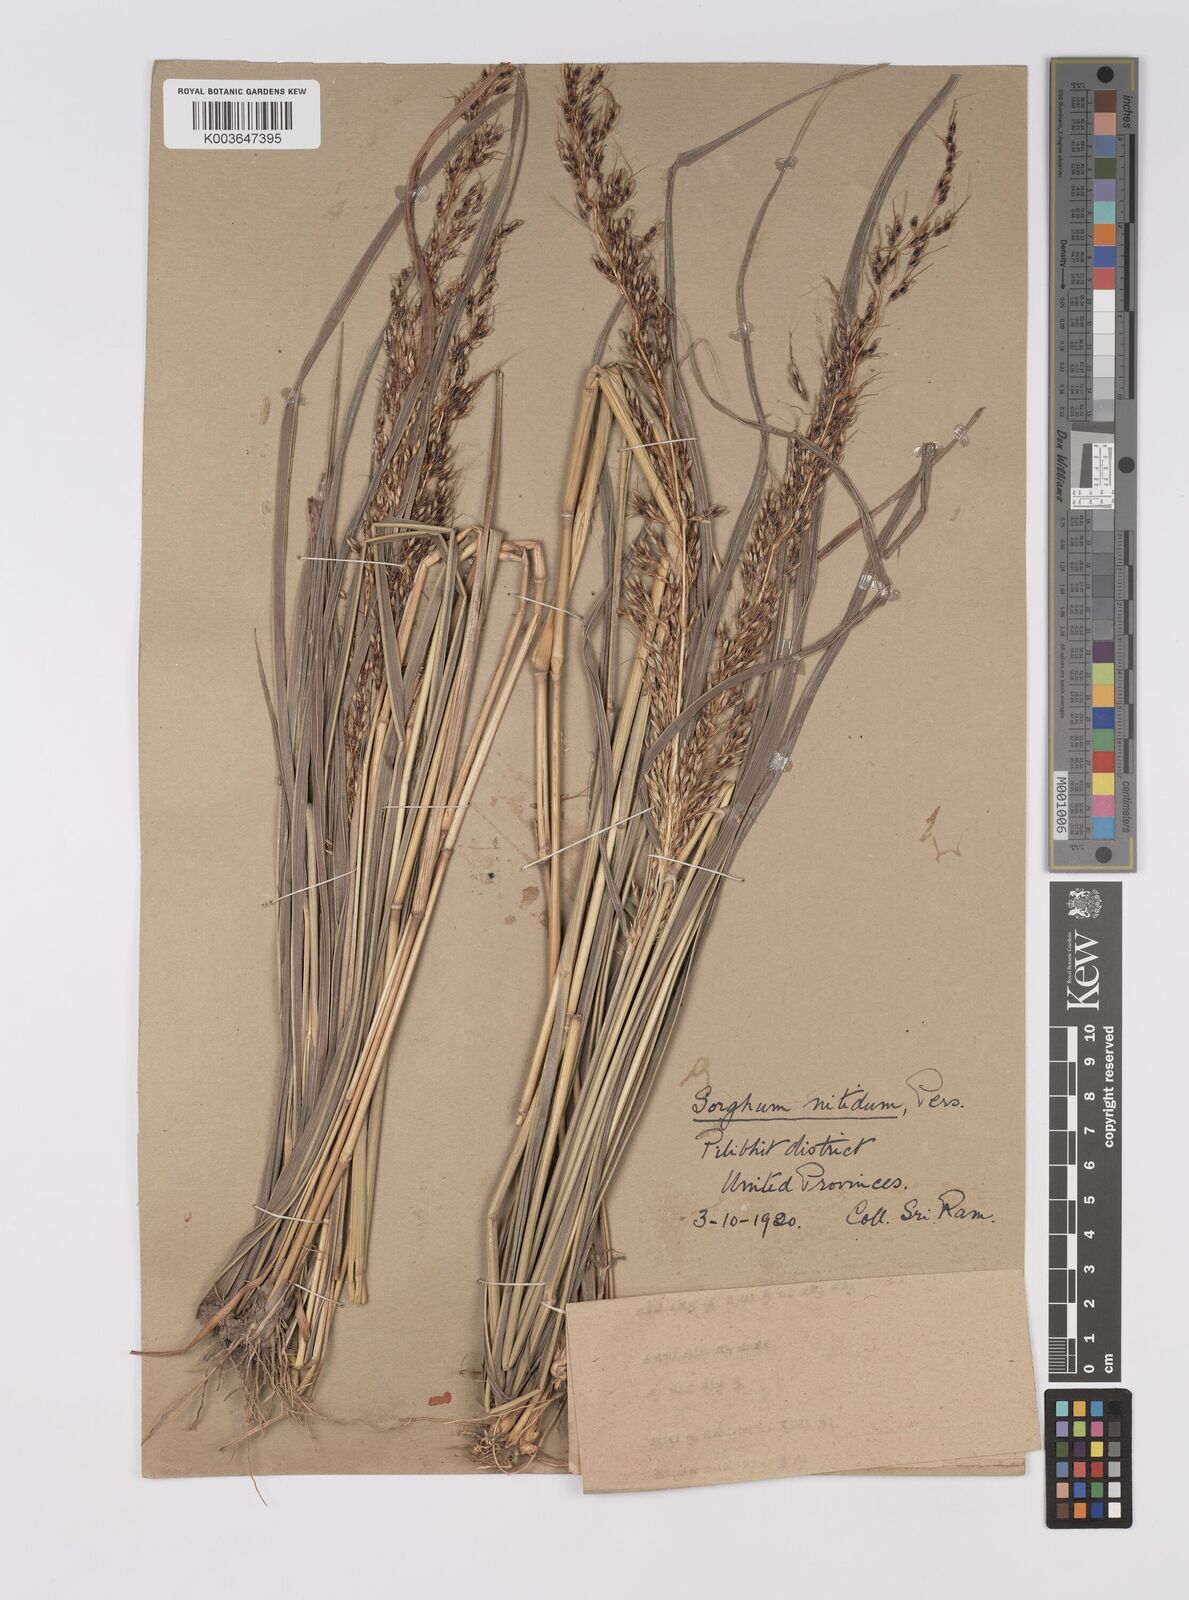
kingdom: Plantae
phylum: Tracheophyta
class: Liliopsida
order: Poales
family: Poaceae
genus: Sorghum
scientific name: Sorghum nitidum
